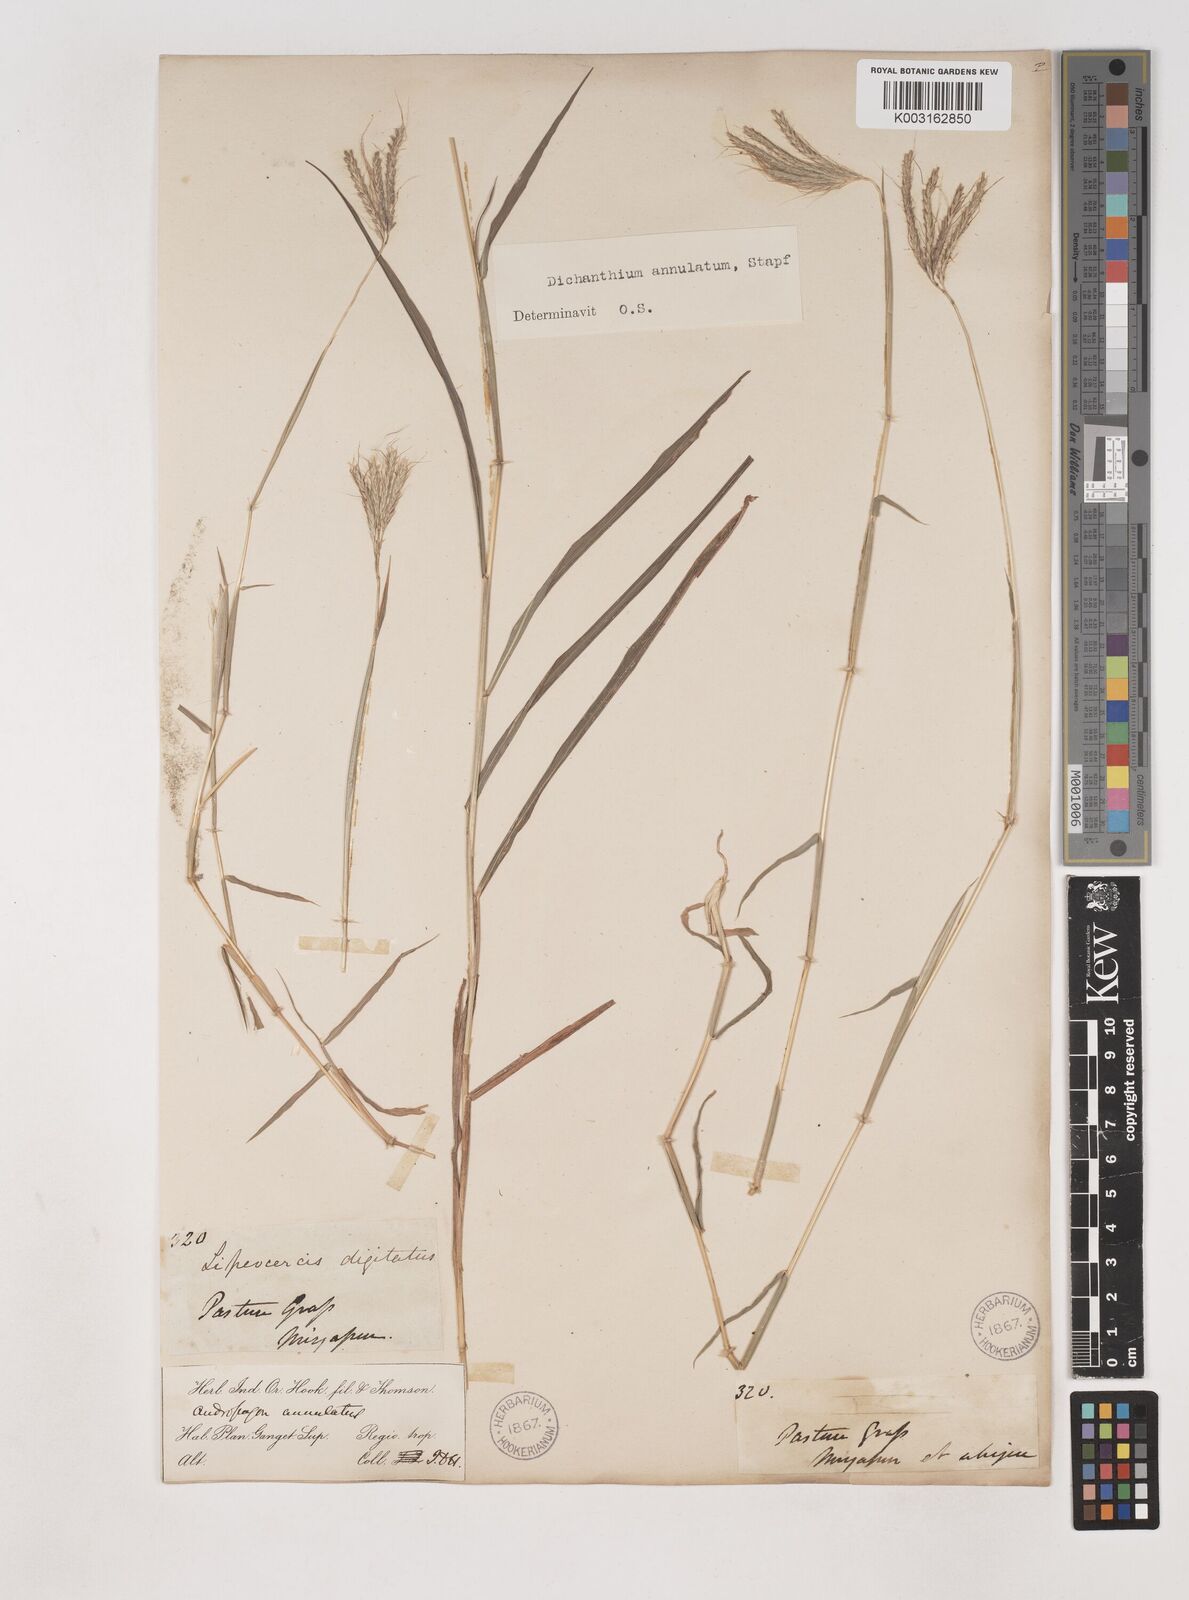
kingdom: Plantae
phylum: Tracheophyta
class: Liliopsida
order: Poales
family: Poaceae
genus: Dichanthium
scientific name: Dichanthium annulatum
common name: Kleberg's bluestem
